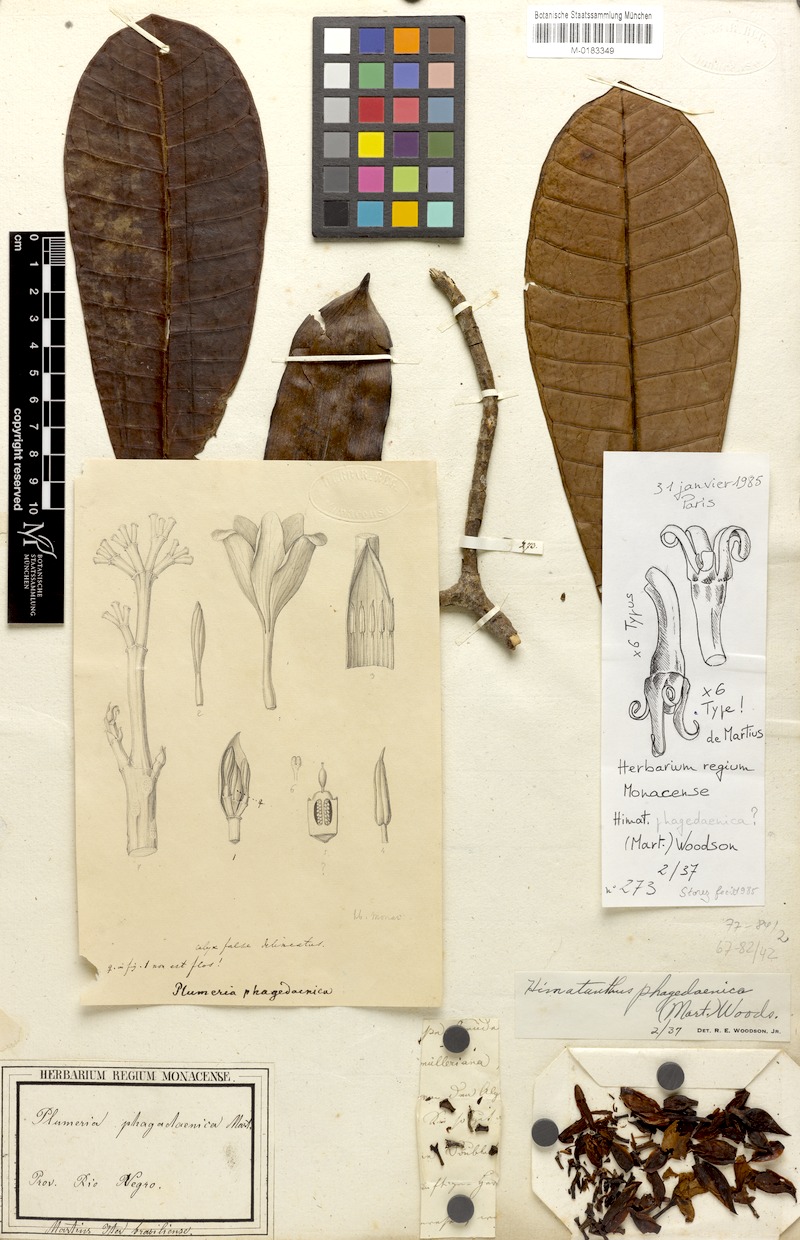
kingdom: Plantae
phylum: Tracheophyta
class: Magnoliopsida
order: Gentianales
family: Apocynaceae
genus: Himatanthus
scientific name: Himatanthus phagedaenicus
